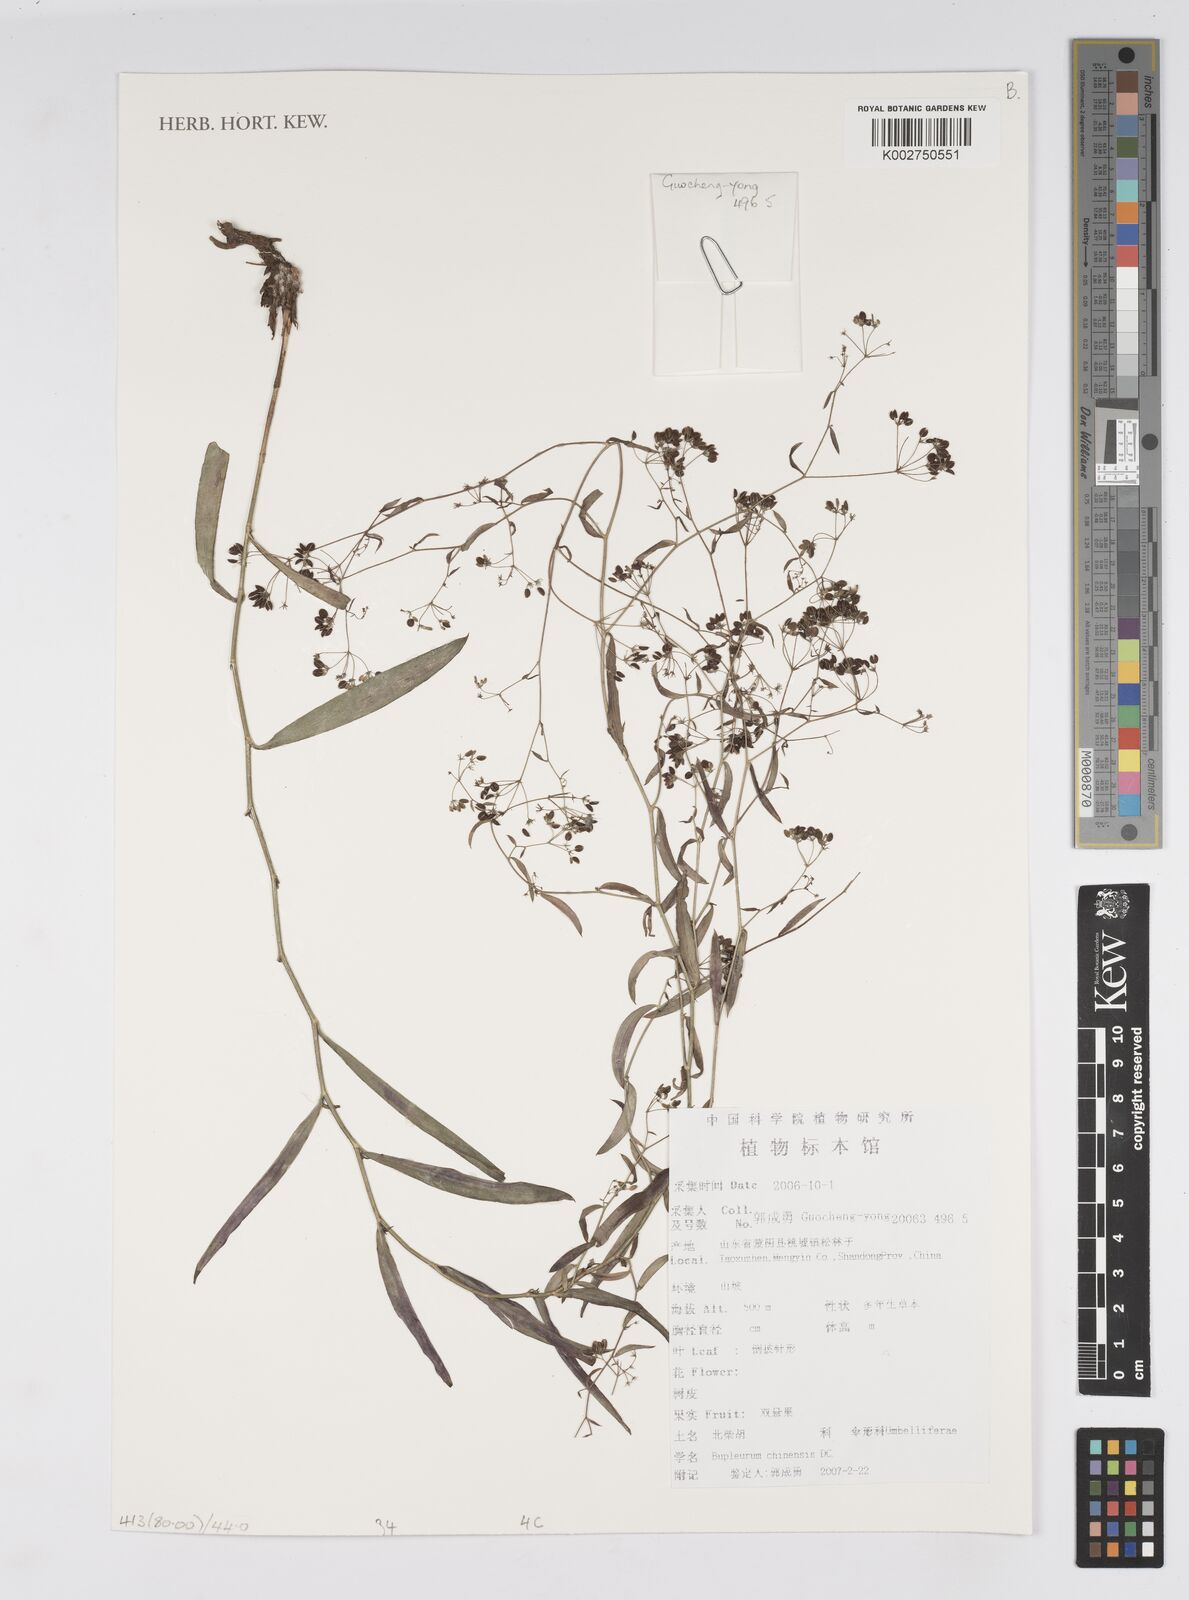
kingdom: Plantae
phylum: Tracheophyta
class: Magnoliopsida
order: Apiales
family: Apiaceae
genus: Bupleurum
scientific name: Bupleurum chinense
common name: Bupleurum
